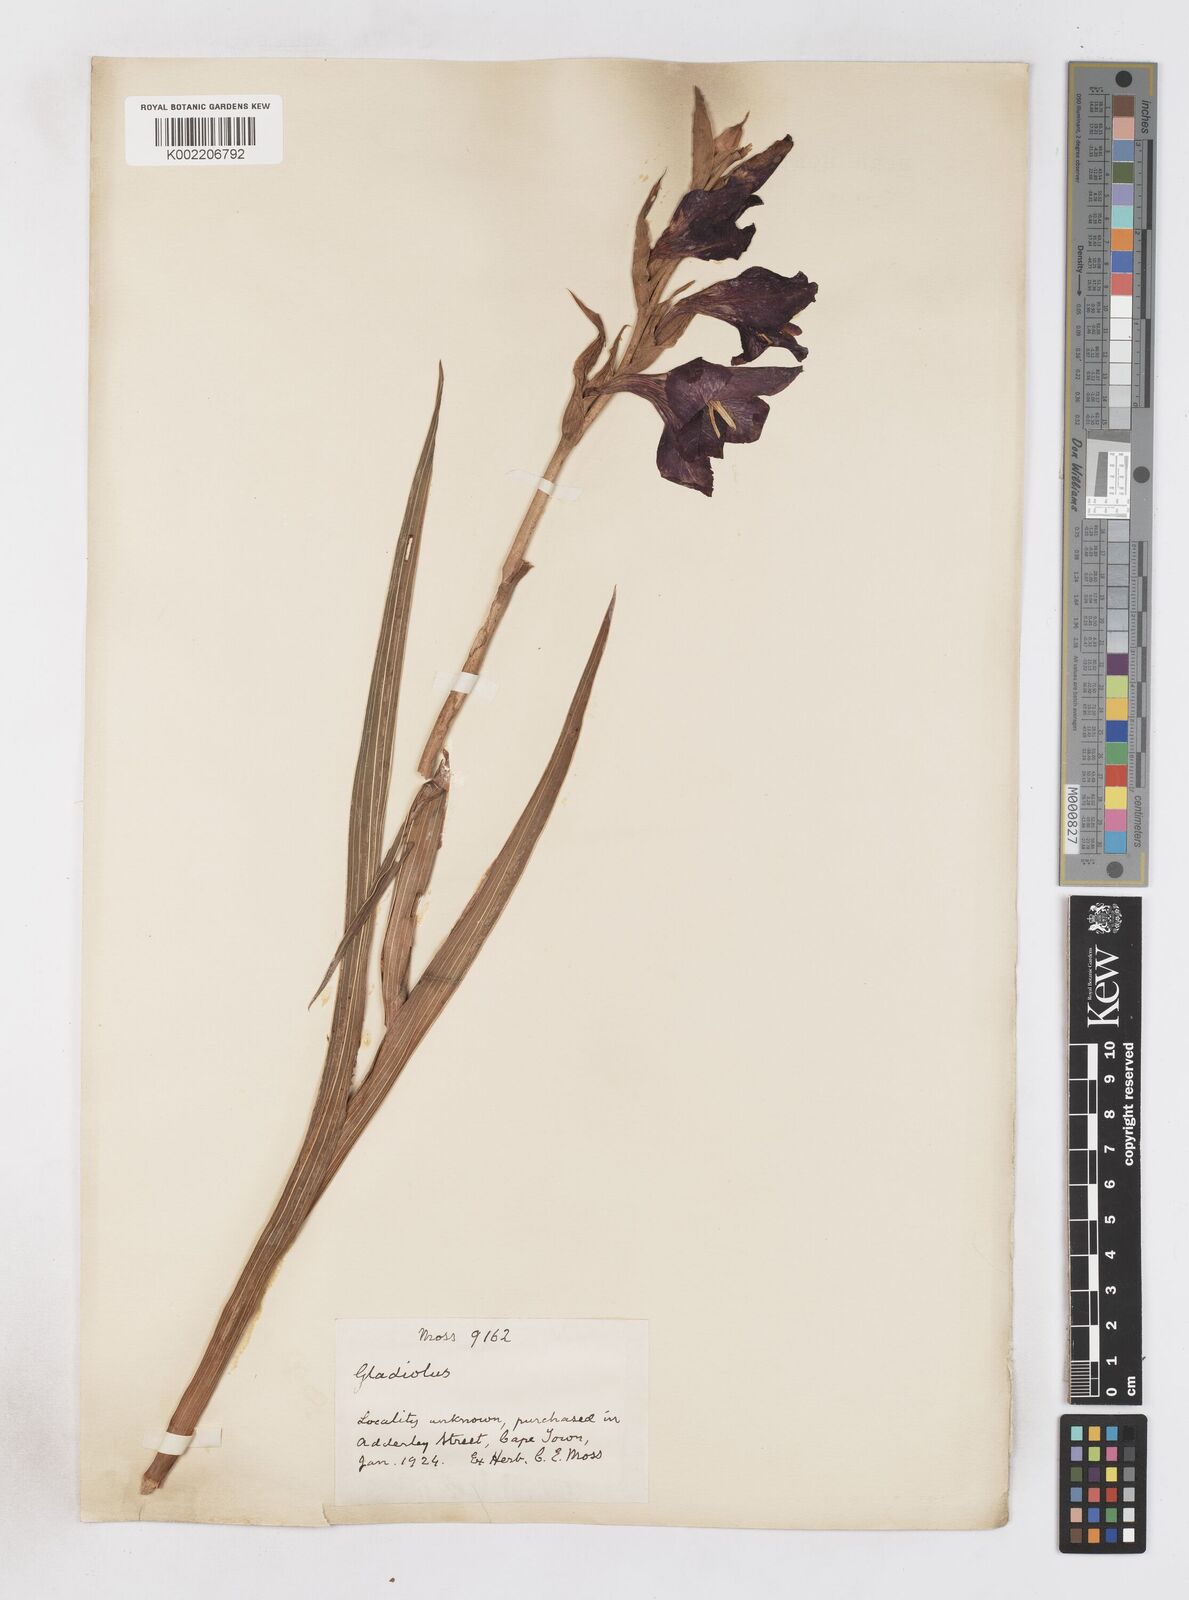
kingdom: Plantae
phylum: Tracheophyta
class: Liliopsida
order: Asparagales
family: Iridaceae
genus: Gladiolus
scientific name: Gladiolus
